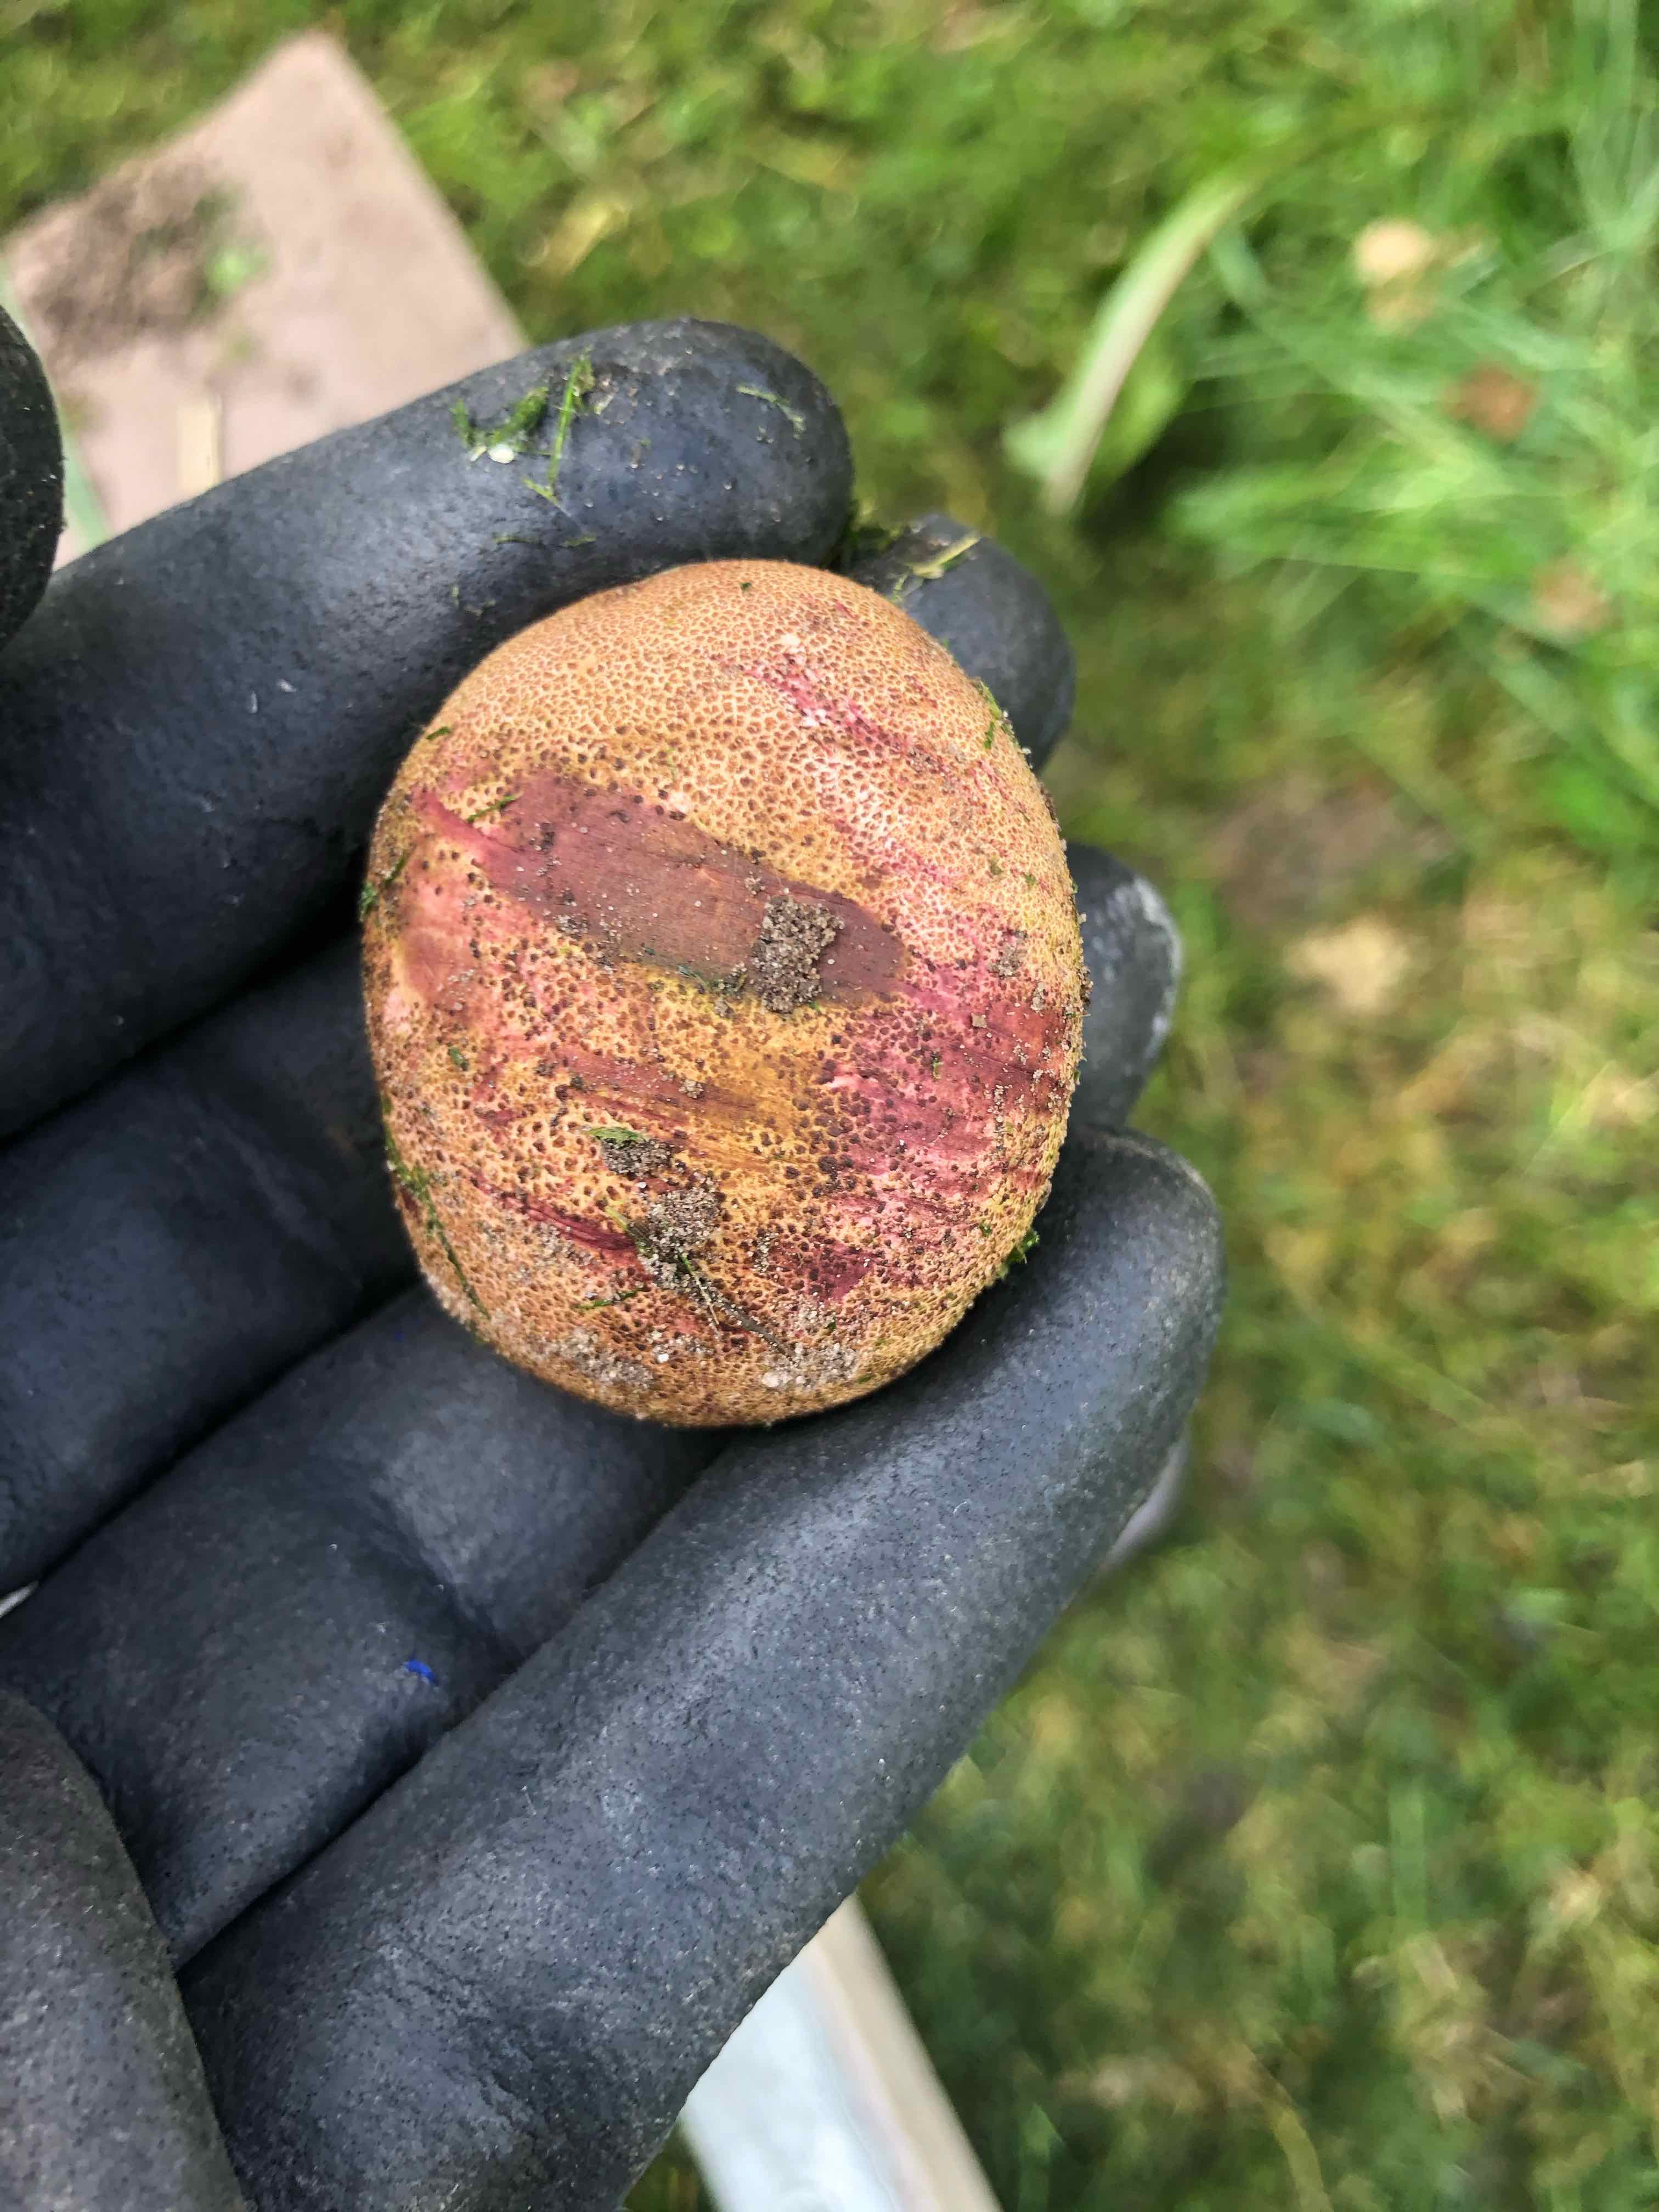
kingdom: Fungi
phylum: Basidiomycota
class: Agaricomycetes
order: Boletales
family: Sclerodermataceae
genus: Scleroderma
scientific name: Scleroderma
